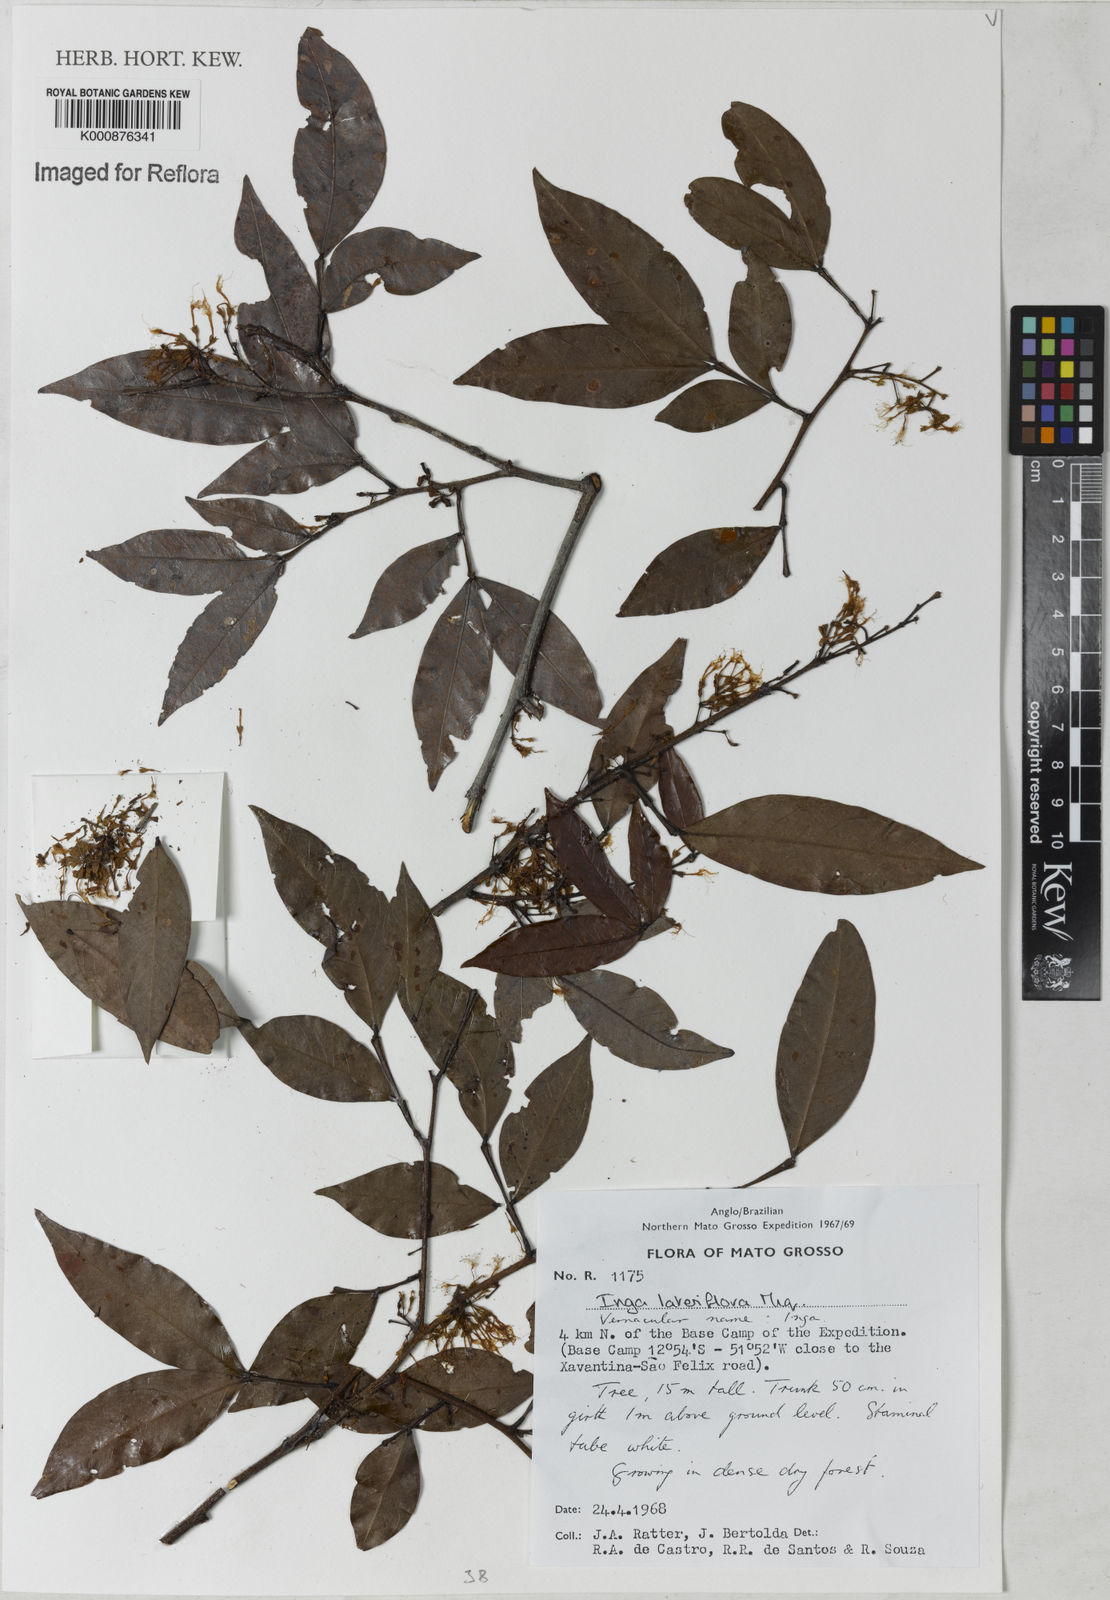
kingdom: Plantae
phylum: Tracheophyta
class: Magnoliopsida
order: Fabales
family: Fabaceae
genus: Inga
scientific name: Inga lateriflora
